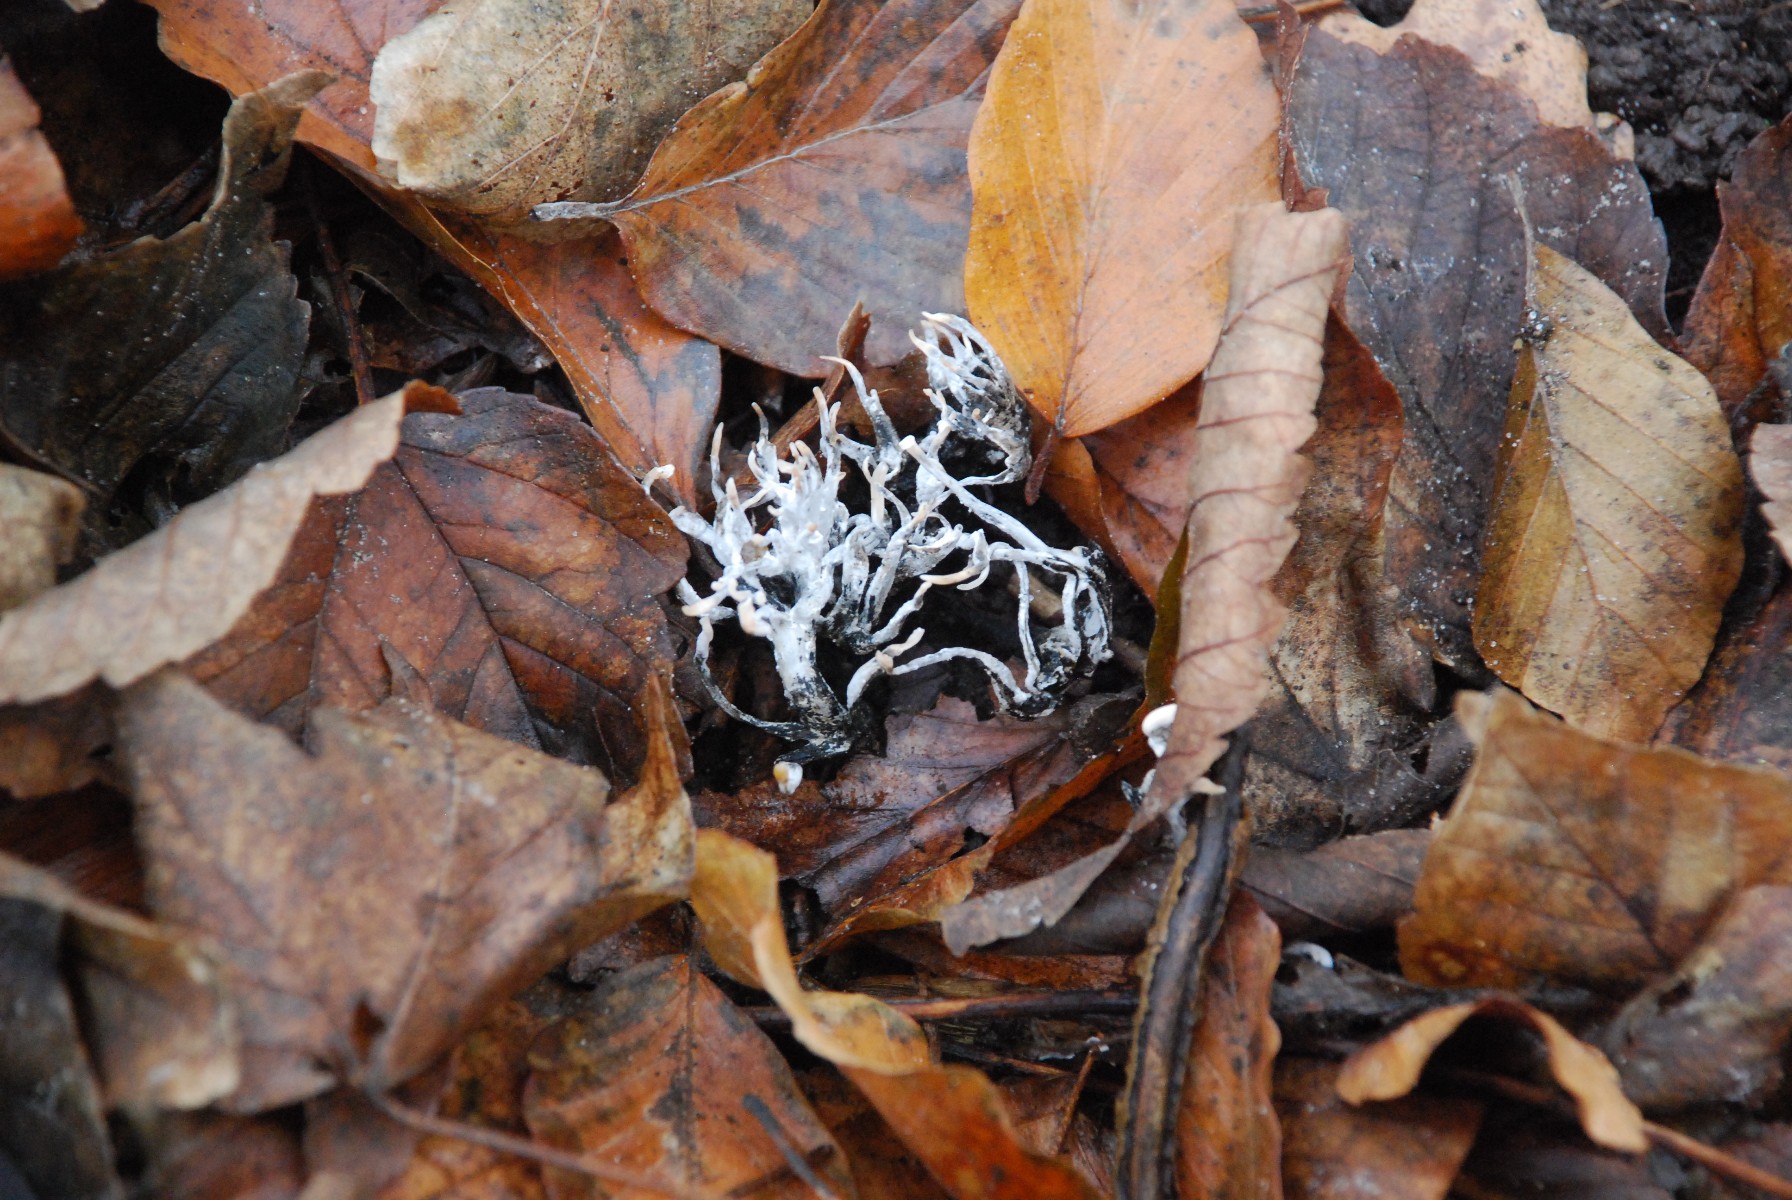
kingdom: Fungi
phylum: Ascomycota
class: Sordariomycetes
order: Xylariales
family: Xylariaceae
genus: Xylaria
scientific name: Xylaria hypoxylon
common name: grenet stødsvamp
